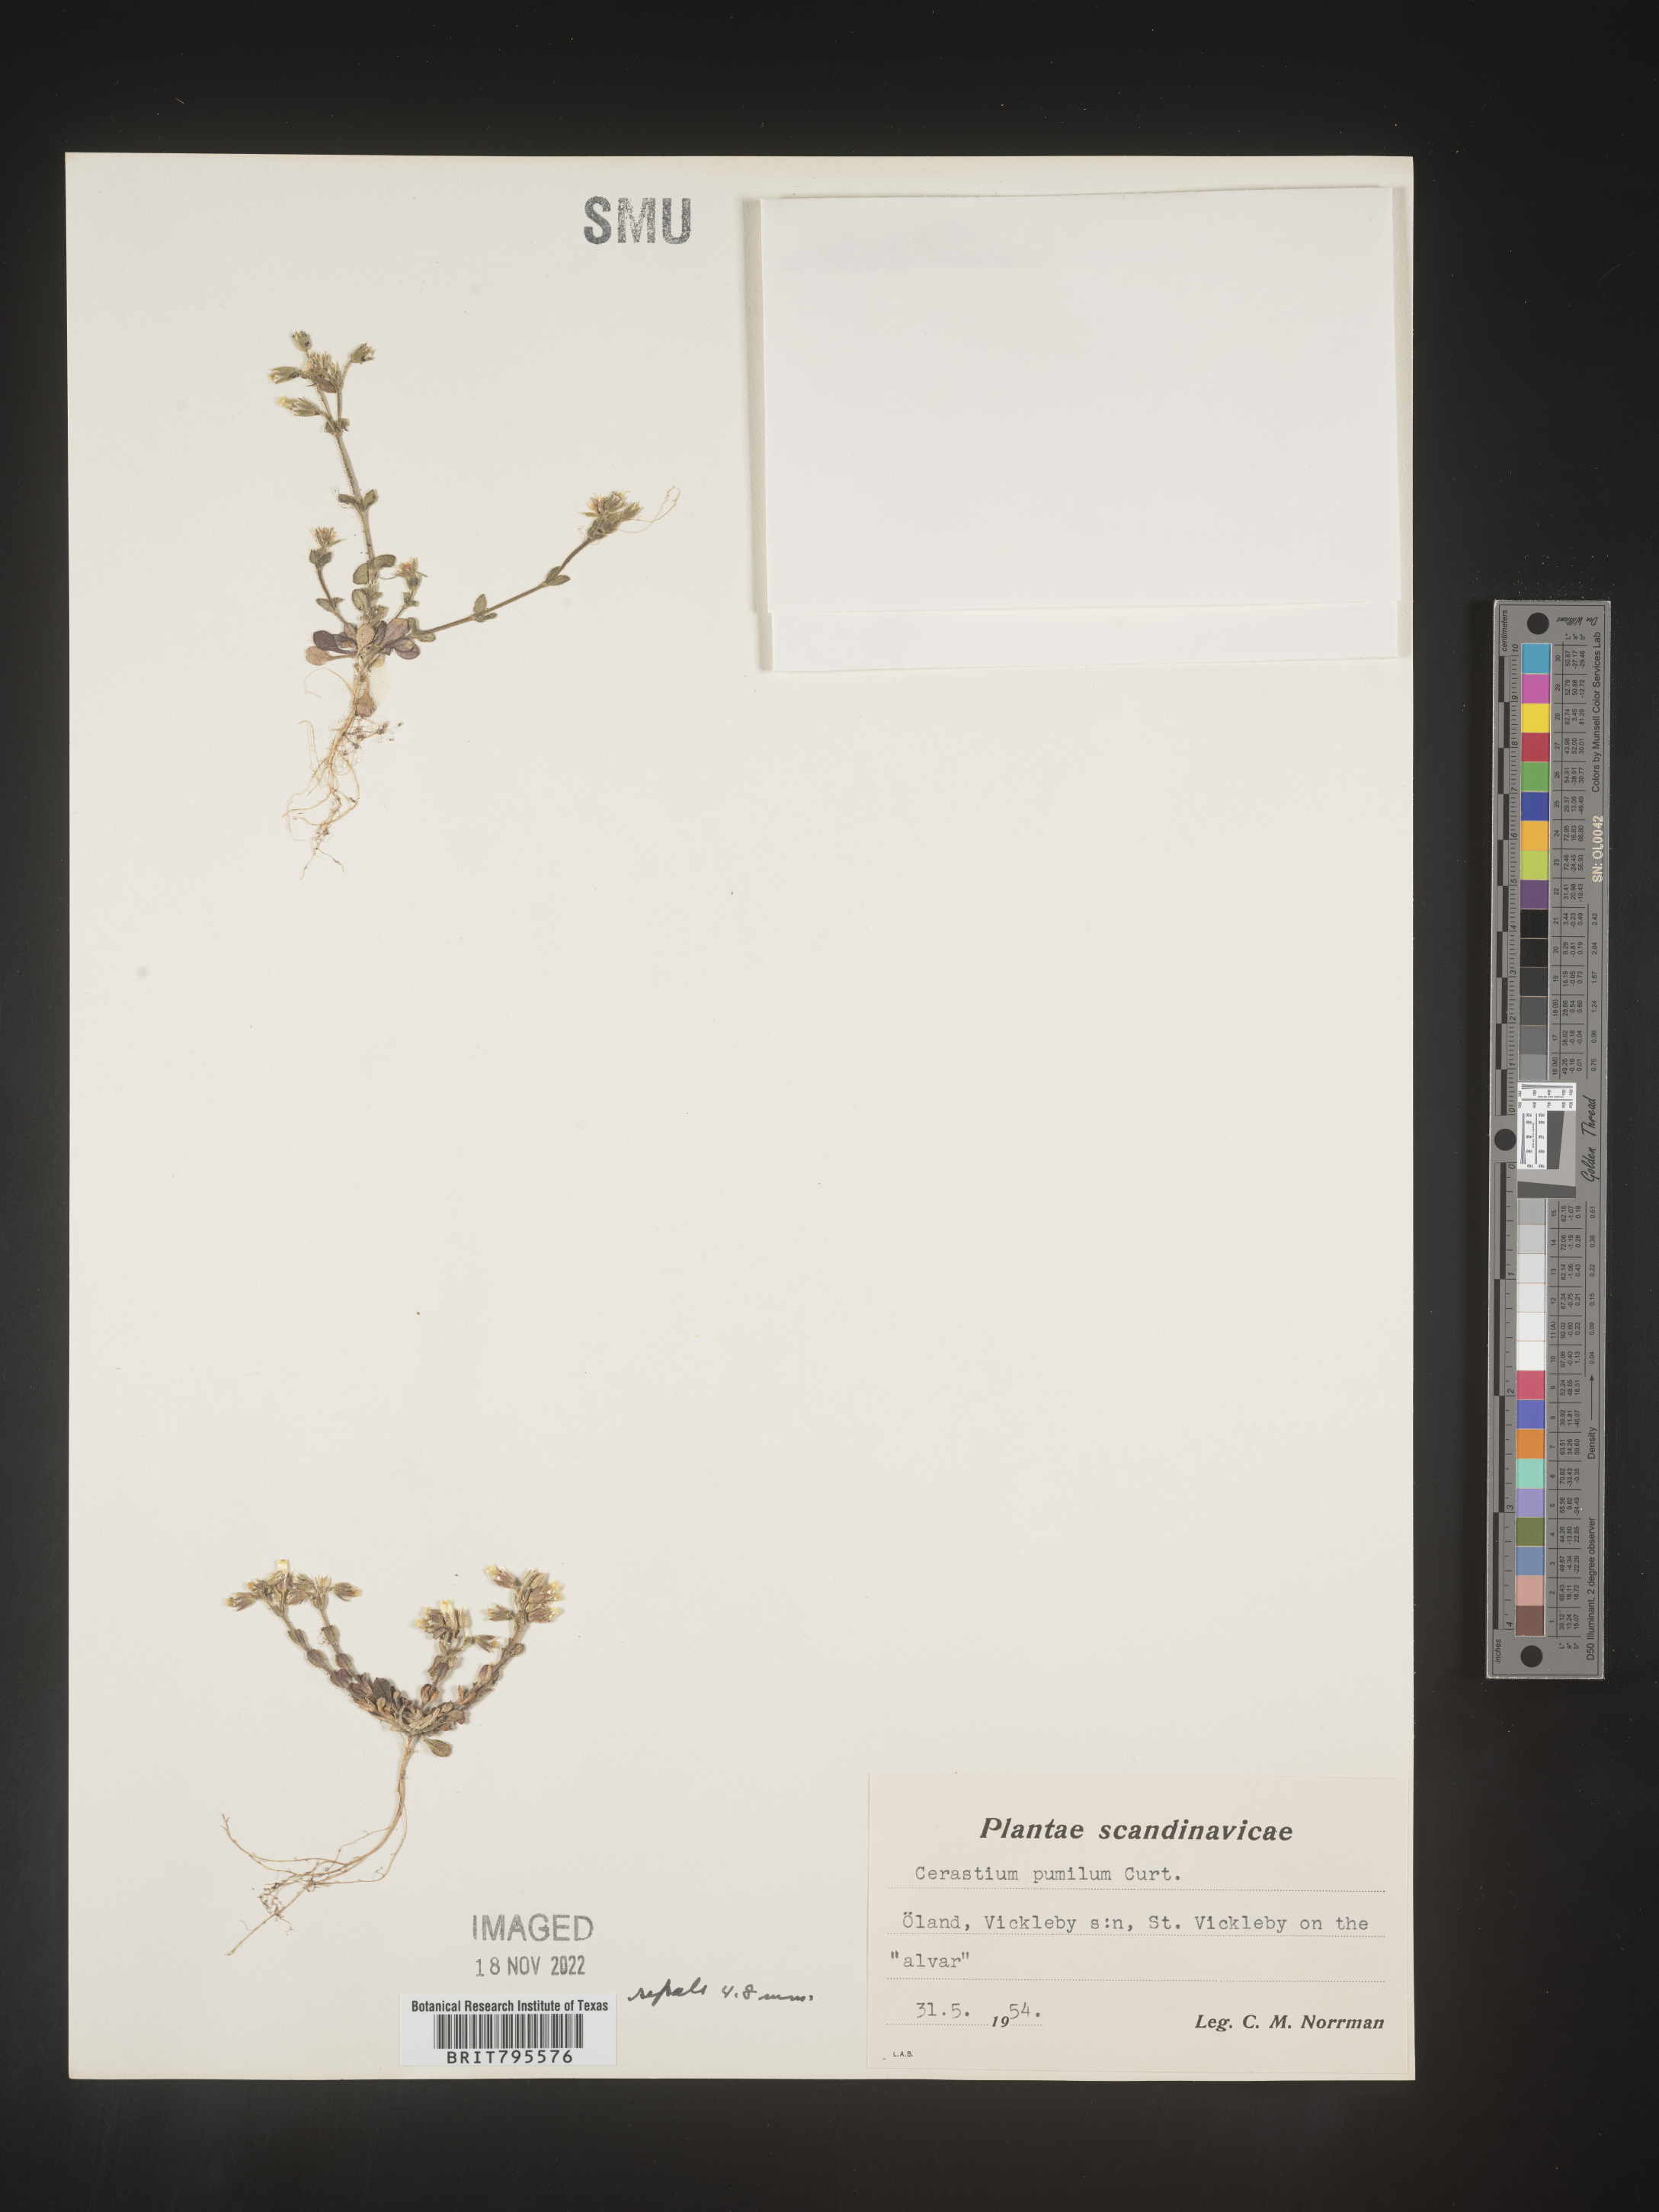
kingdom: Plantae
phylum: Tracheophyta
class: Magnoliopsida
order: Caryophyllales
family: Caryophyllaceae
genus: Cerastium
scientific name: Cerastium
